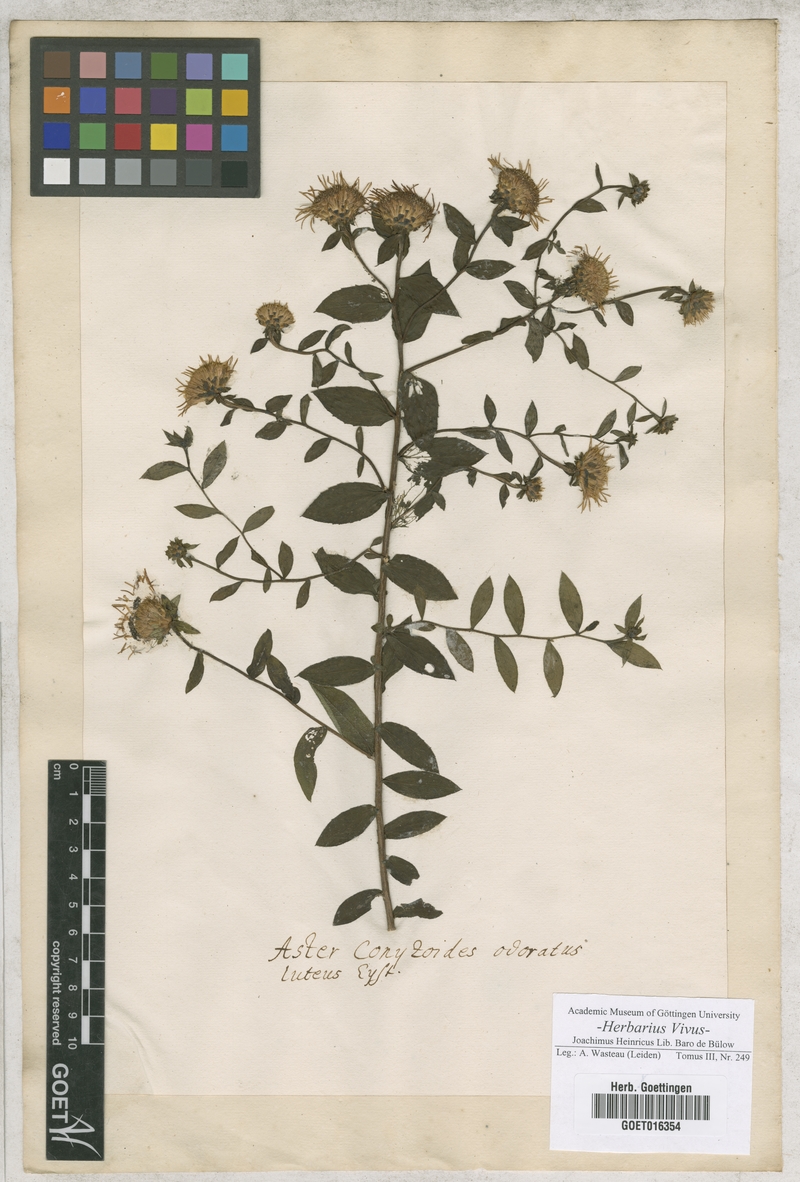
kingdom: Plantae
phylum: Tracheophyta
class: Magnoliopsida
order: Asterales
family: Asteraceae
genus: Aster
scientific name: Aster
